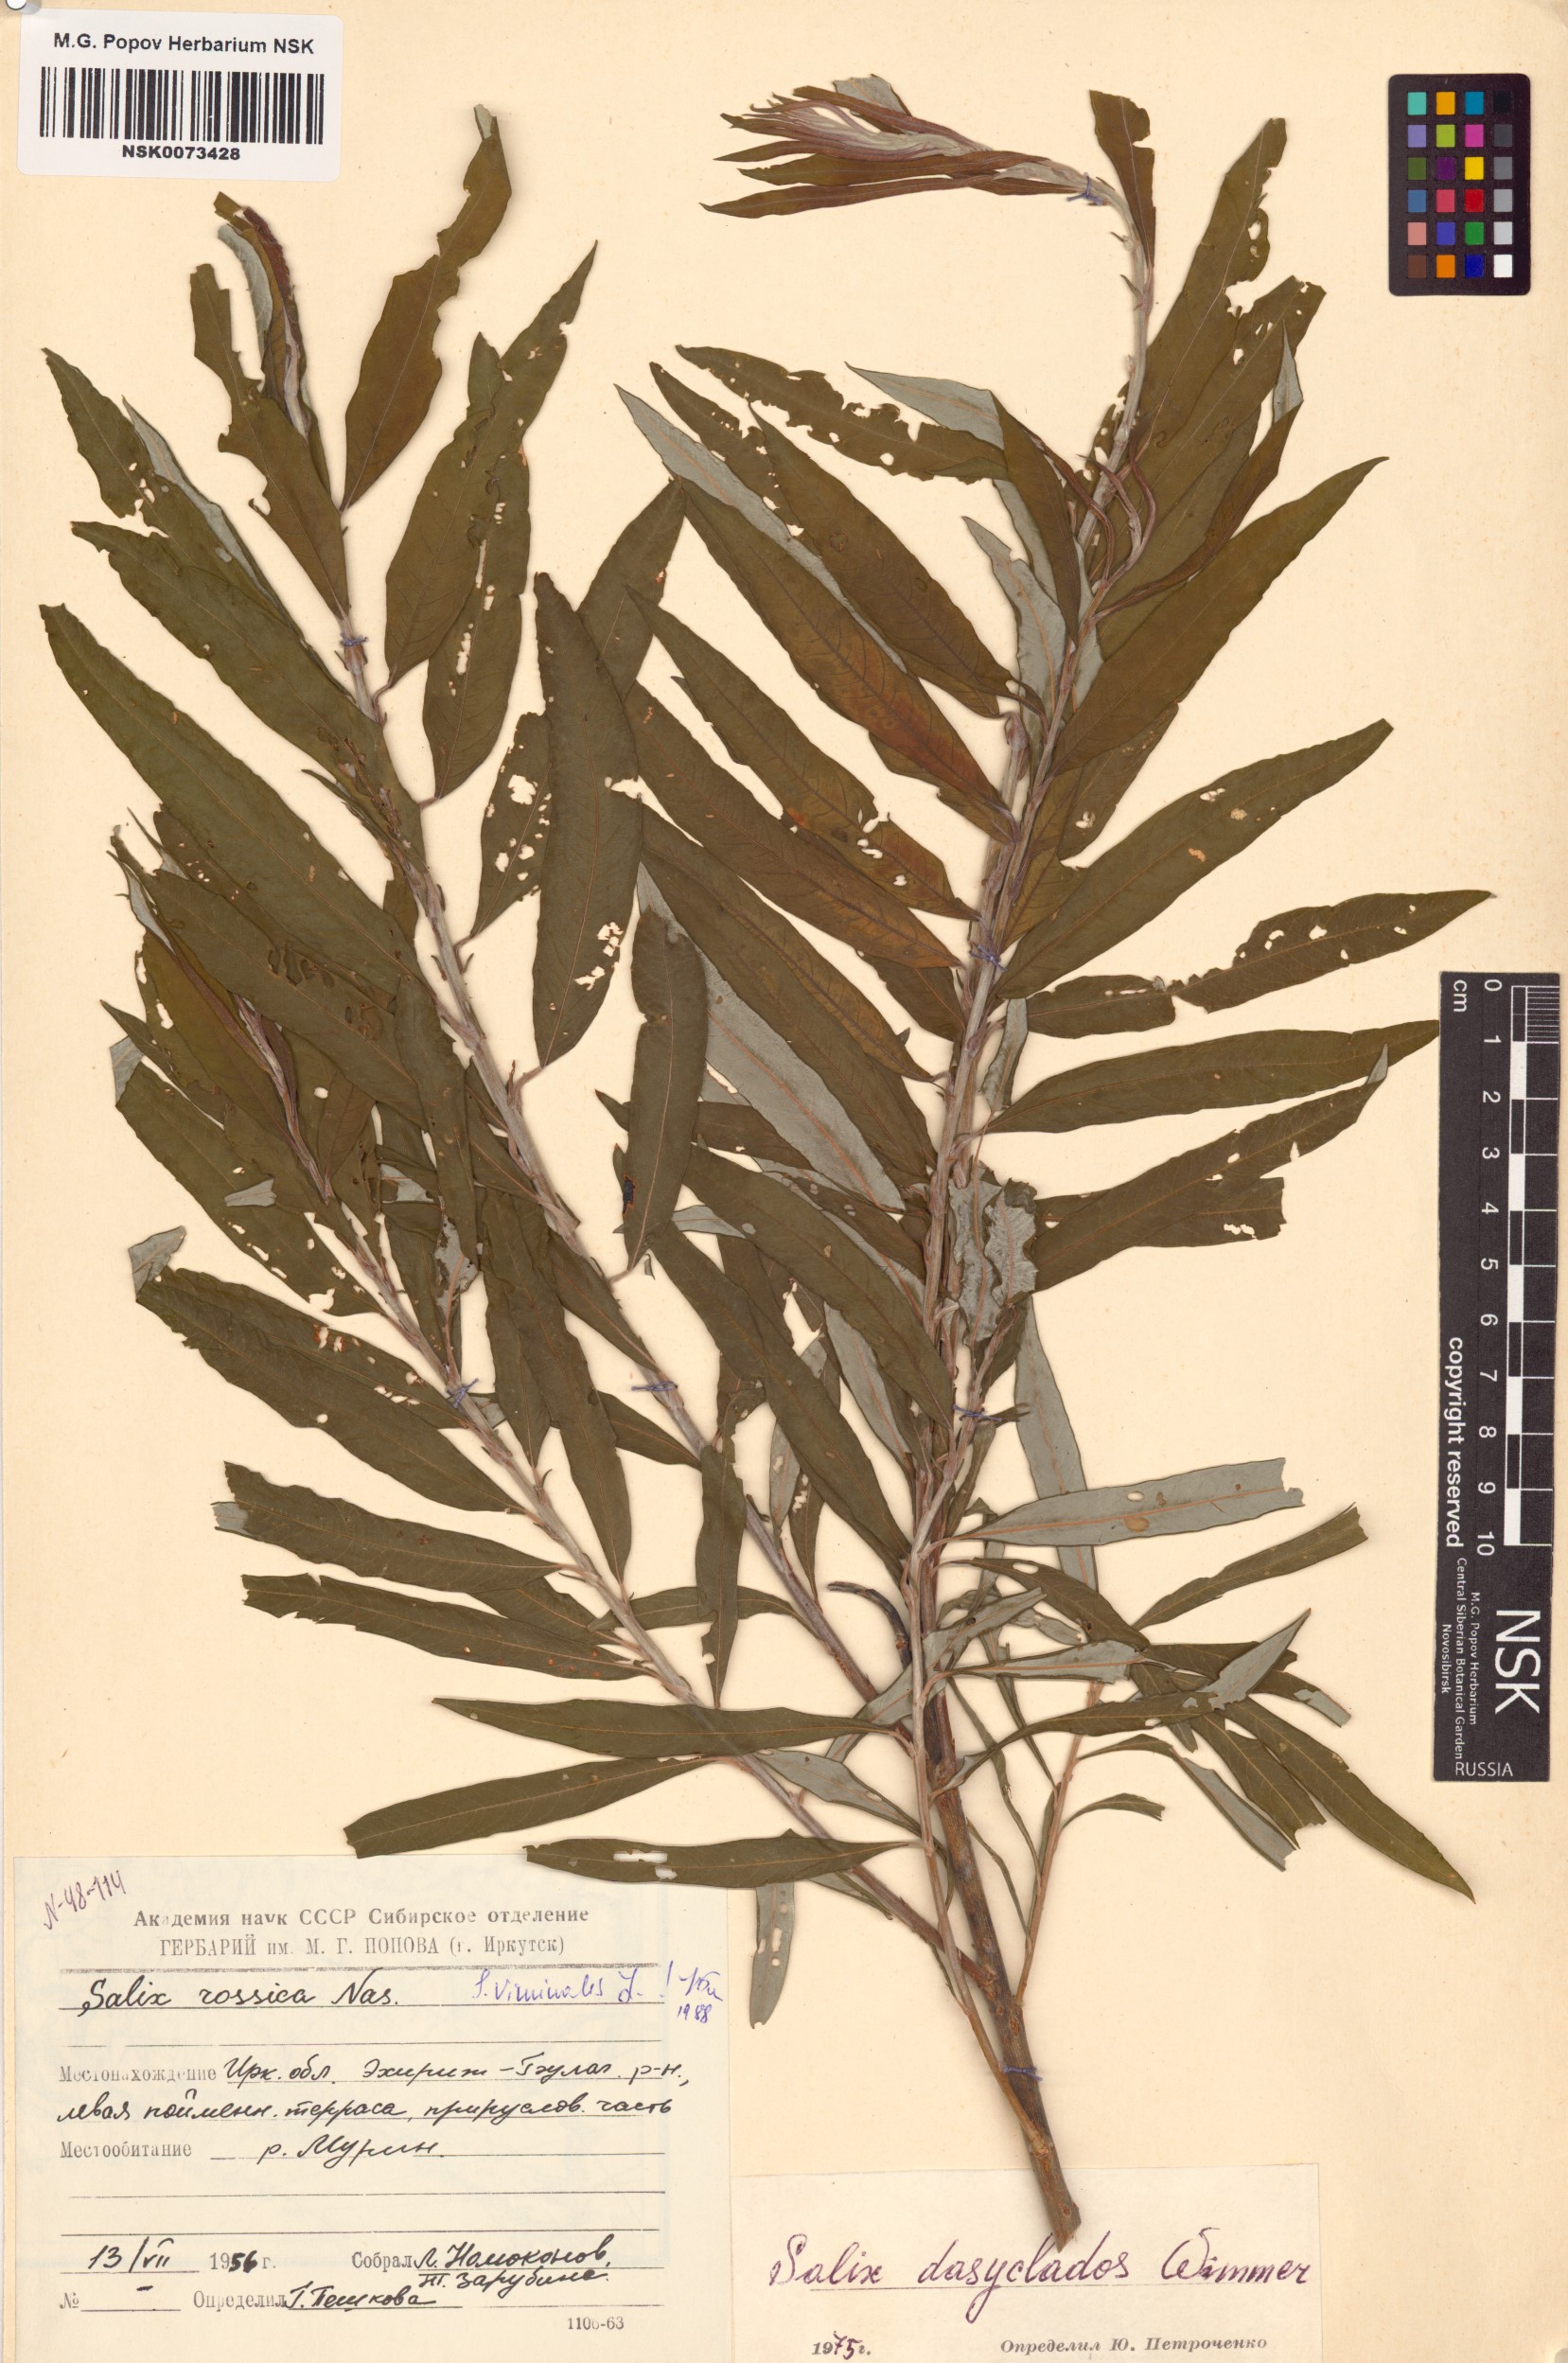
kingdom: Plantae
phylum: Tracheophyta
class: Magnoliopsida
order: Malpighiales
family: Salicaceae
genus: Salix
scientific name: Salix viminalis
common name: Osier
